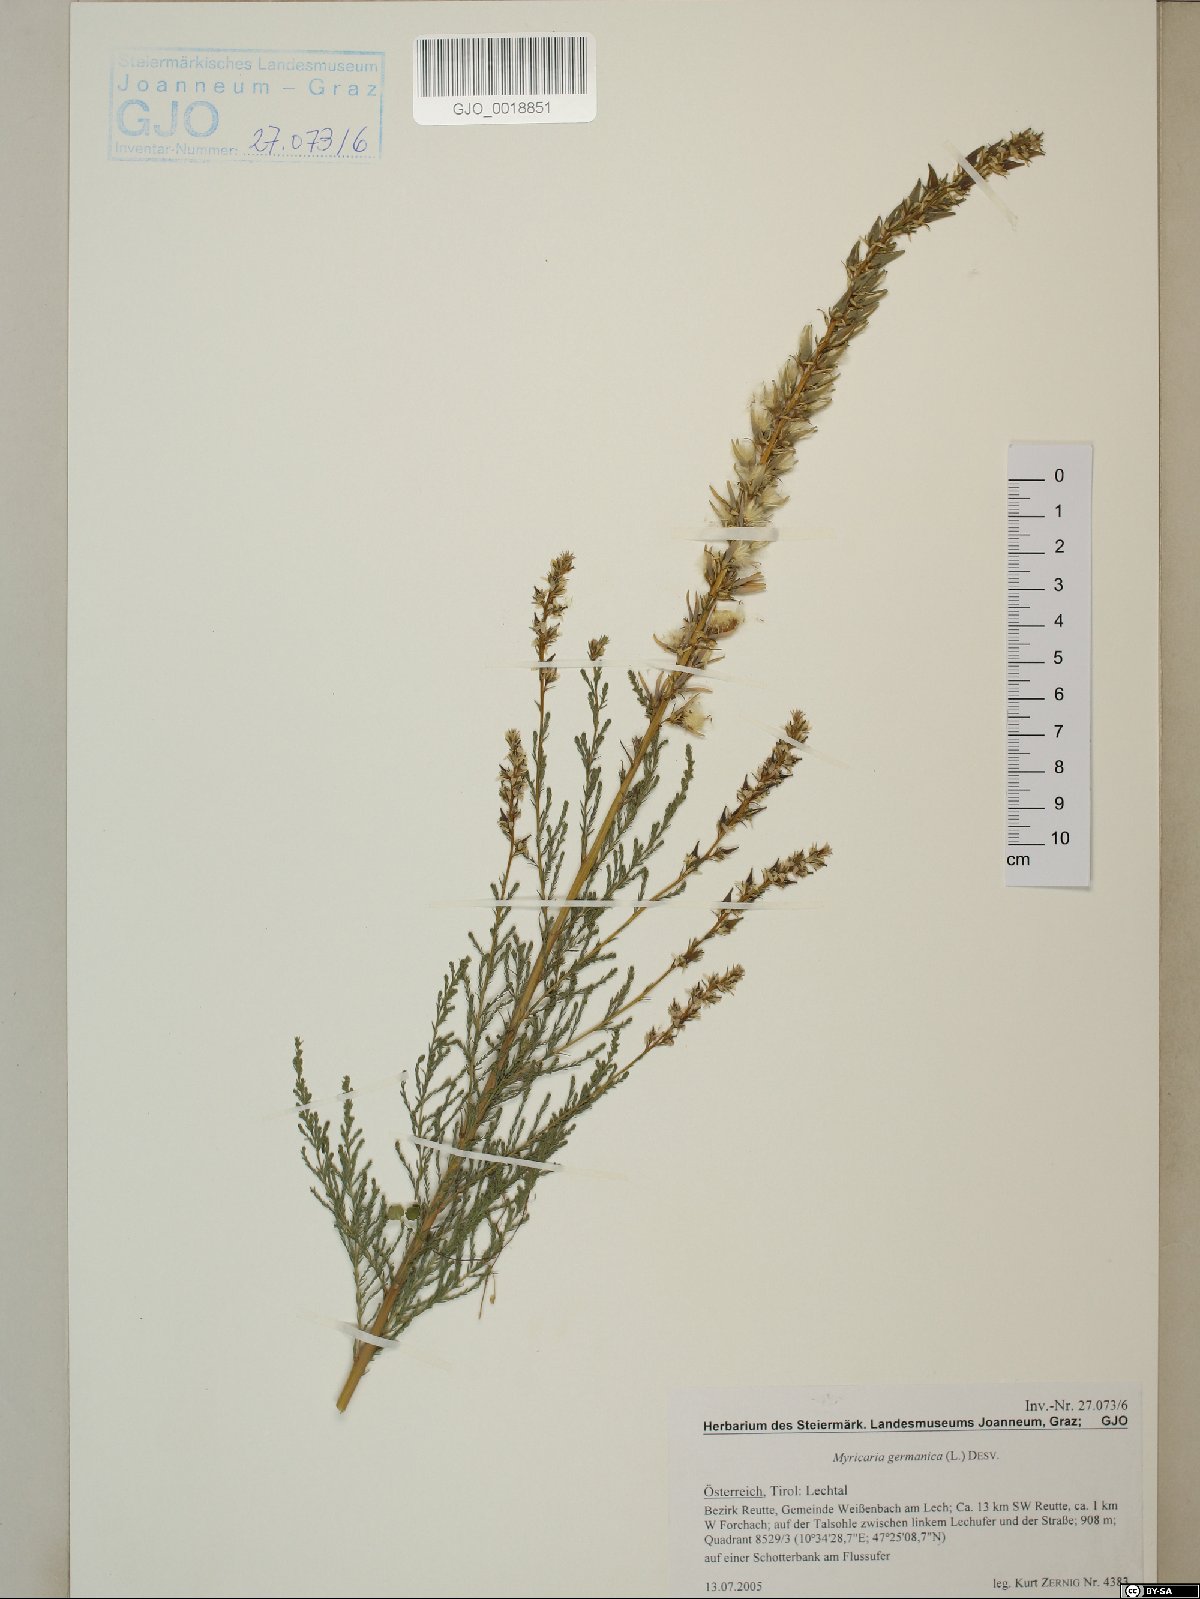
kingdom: Plantae
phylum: Tracheophyta
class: Magnoliopsida
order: Caryophyllales
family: Tamaricaceae
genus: Myricaria
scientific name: Myricaria germanica
